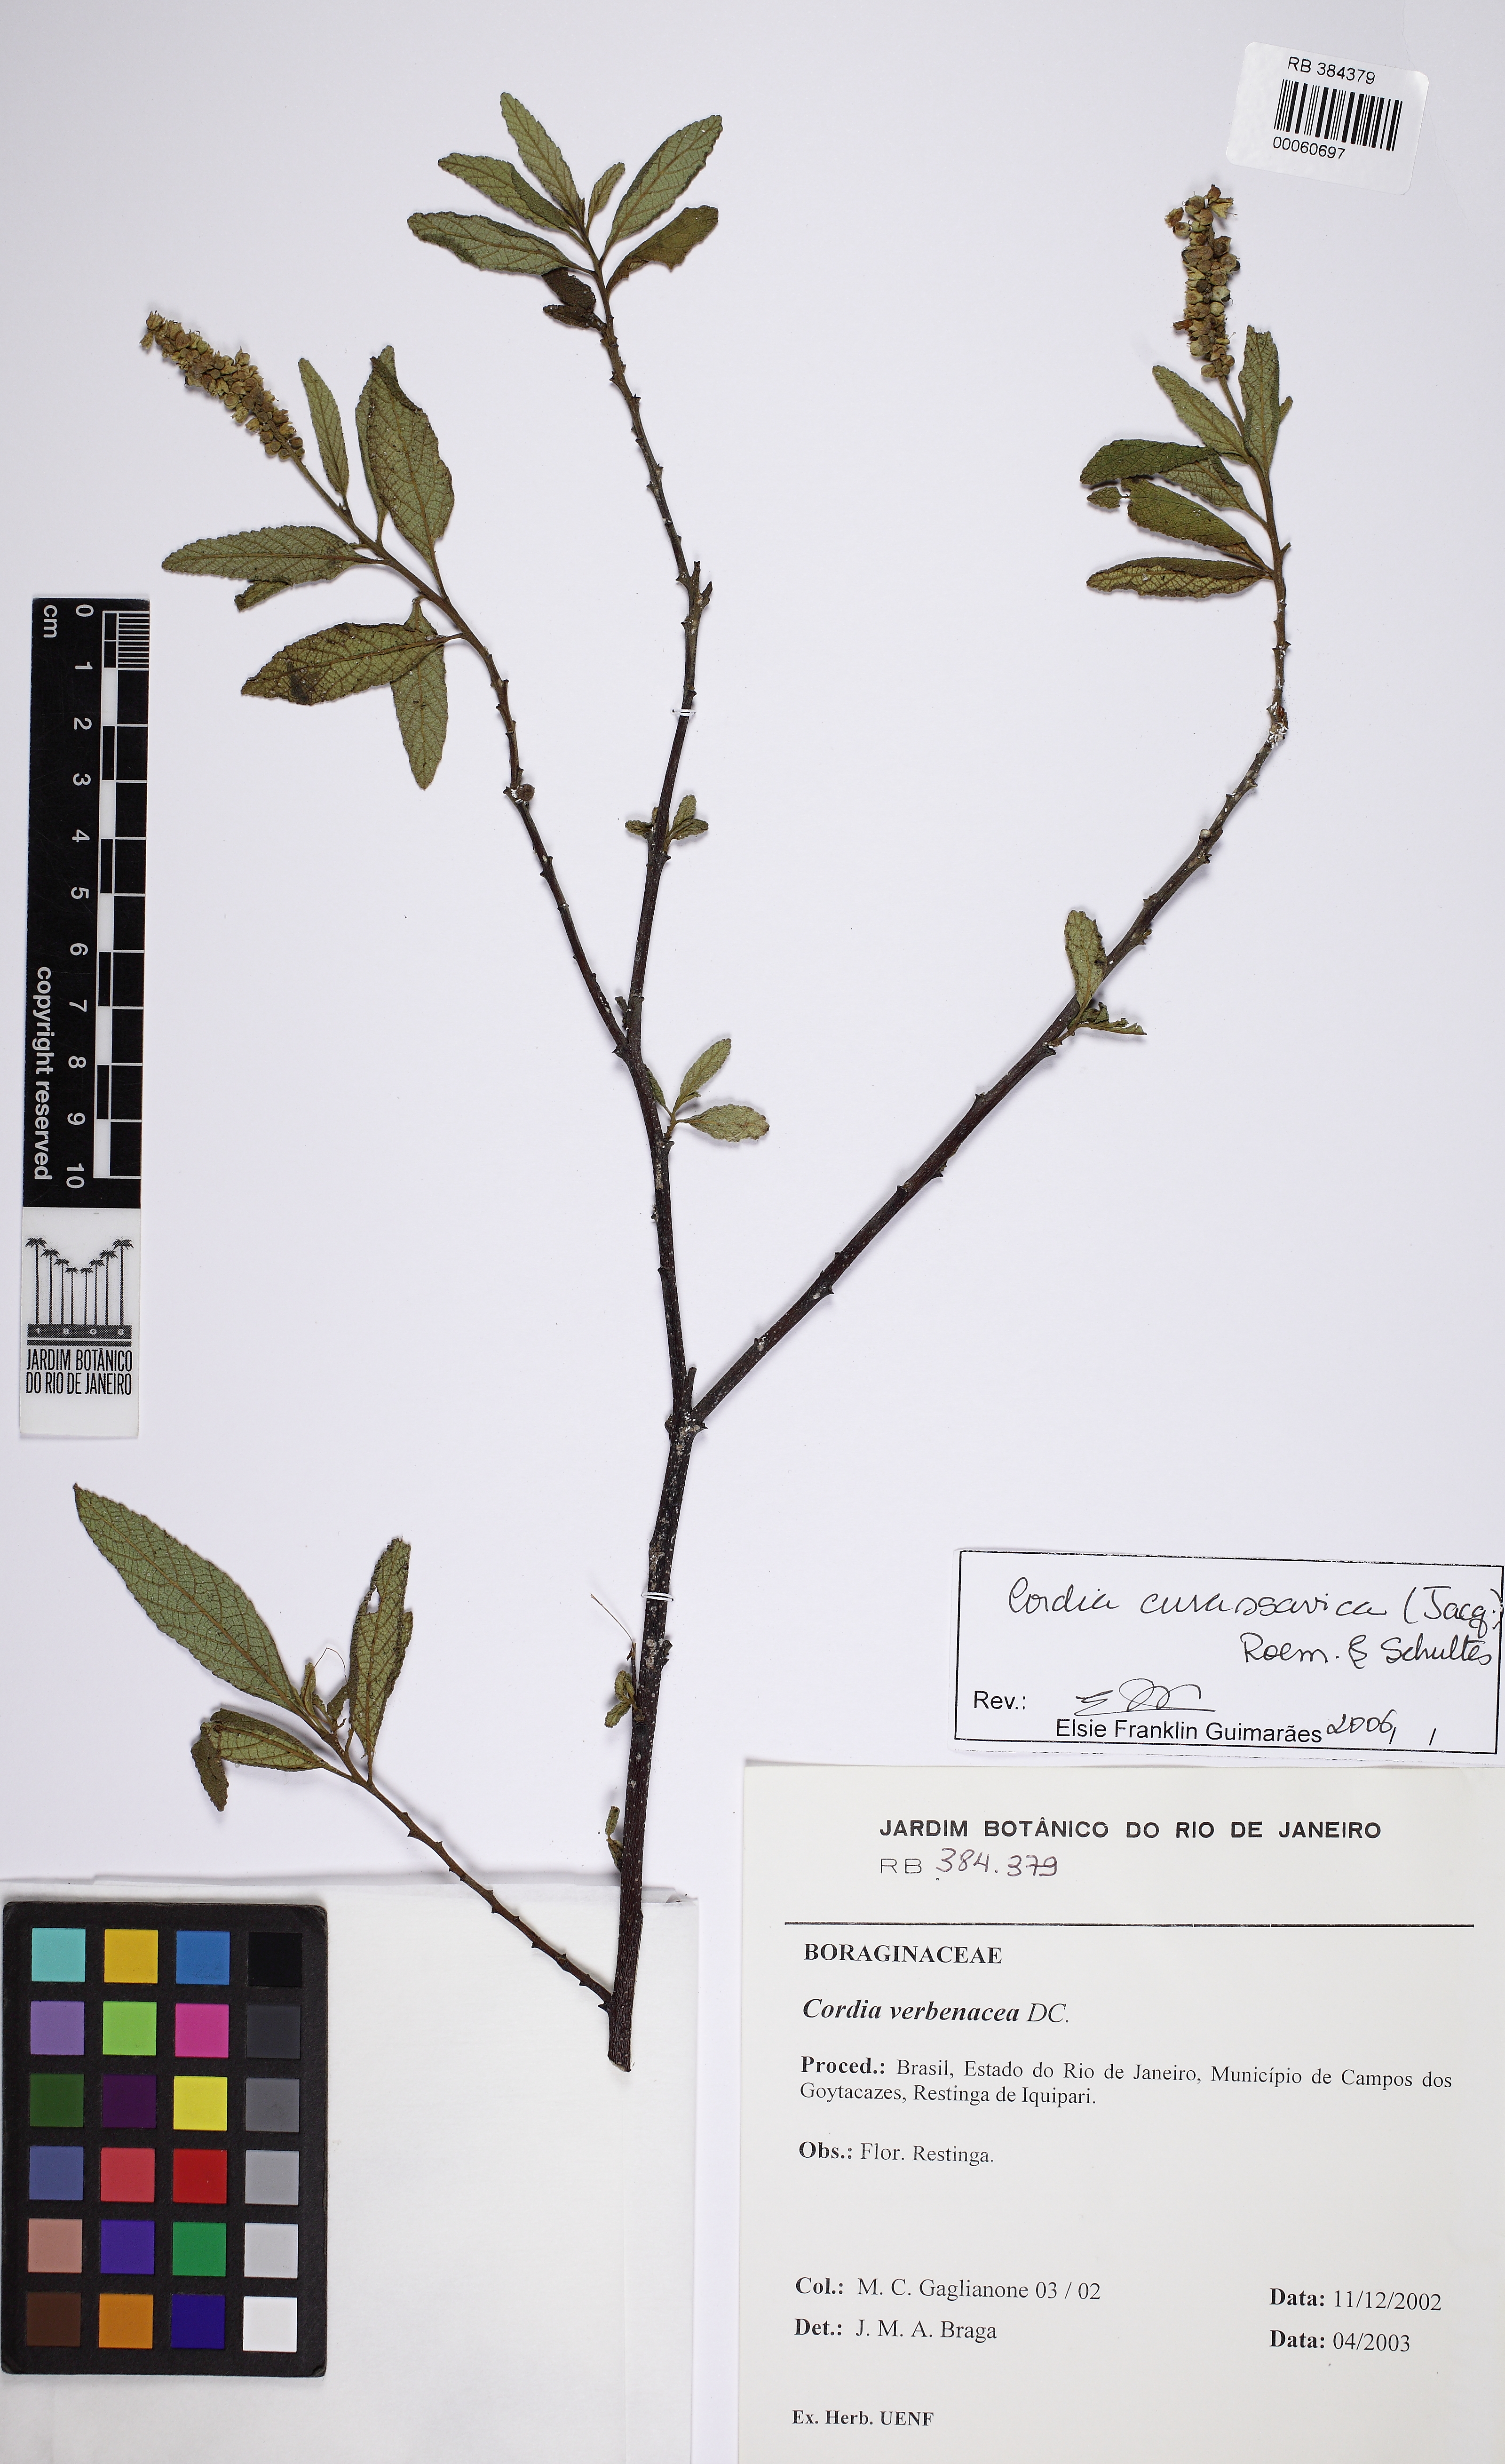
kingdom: Plantae
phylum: Tracheophyta
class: Magnoliopsida
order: Boraginales
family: Cordiaceae
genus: Varronia
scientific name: Varronia curassavica
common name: Black sage
